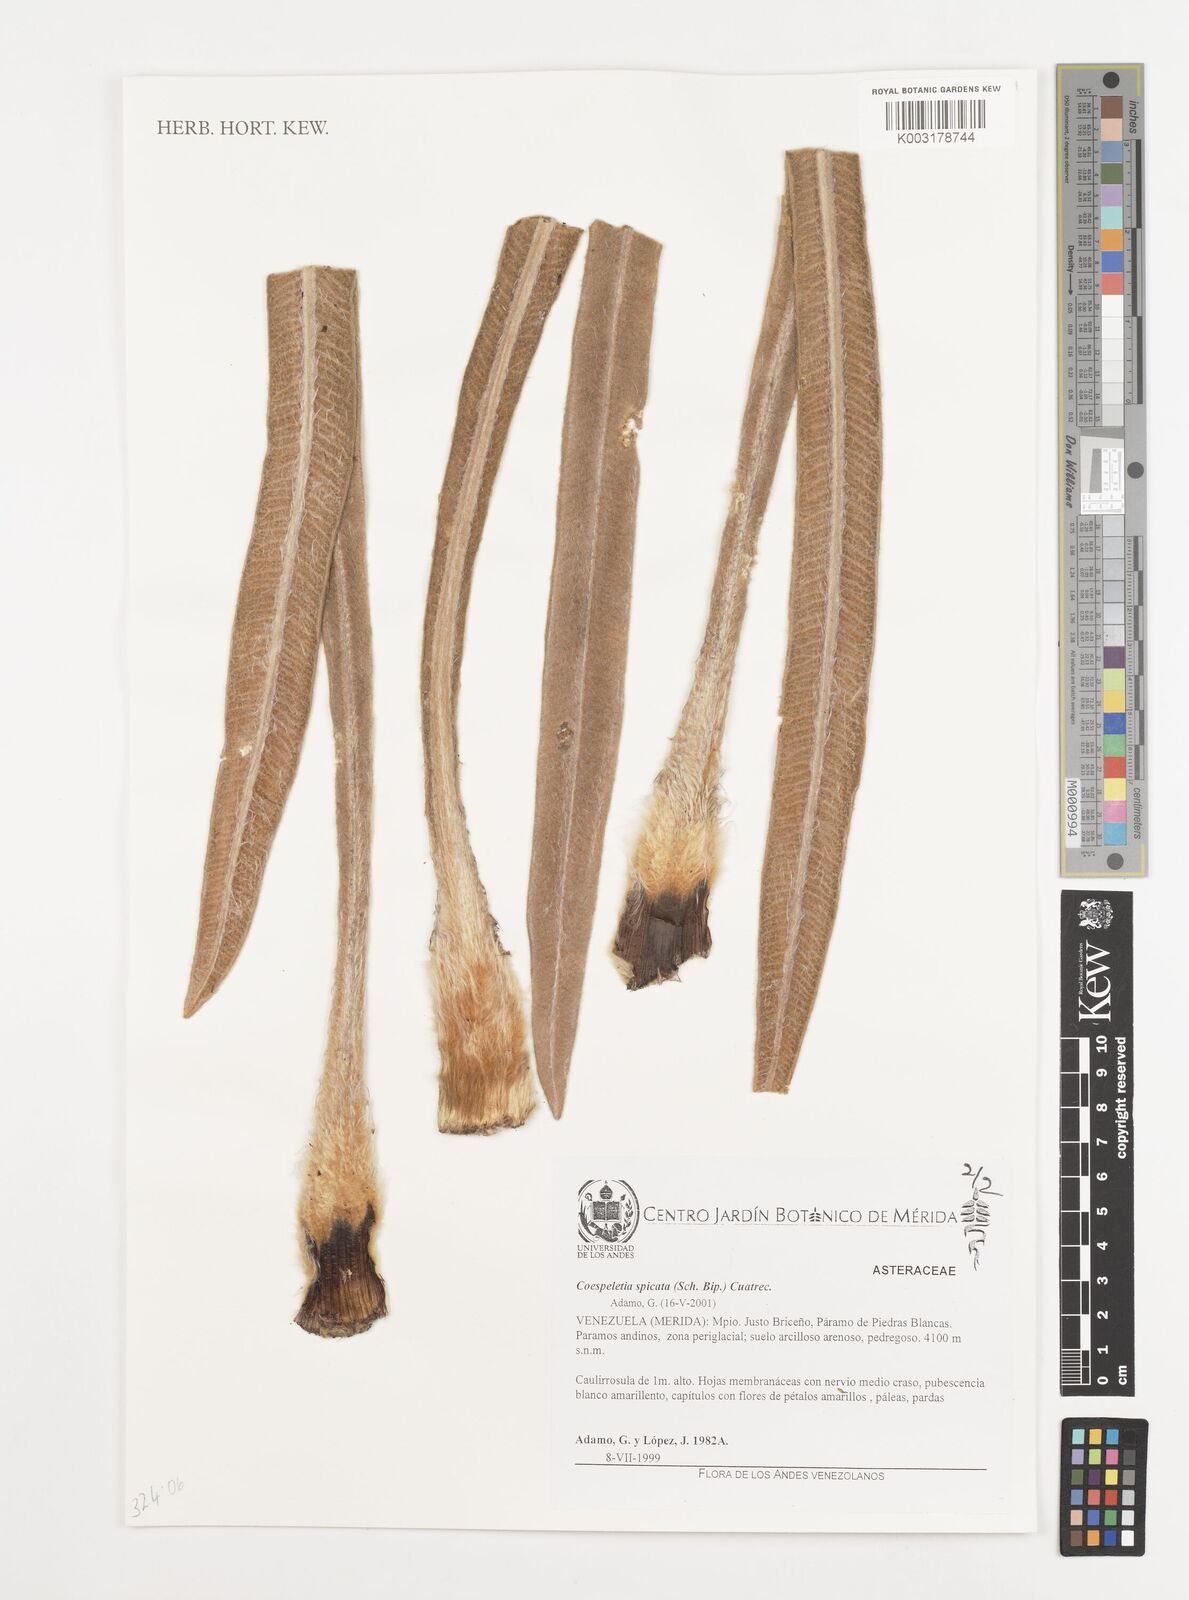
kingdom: Plantae
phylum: Tracheophyta
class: Magnoliopsida
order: Asterales
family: Asteraceae
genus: Espeletia
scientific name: Espeletia spicata
